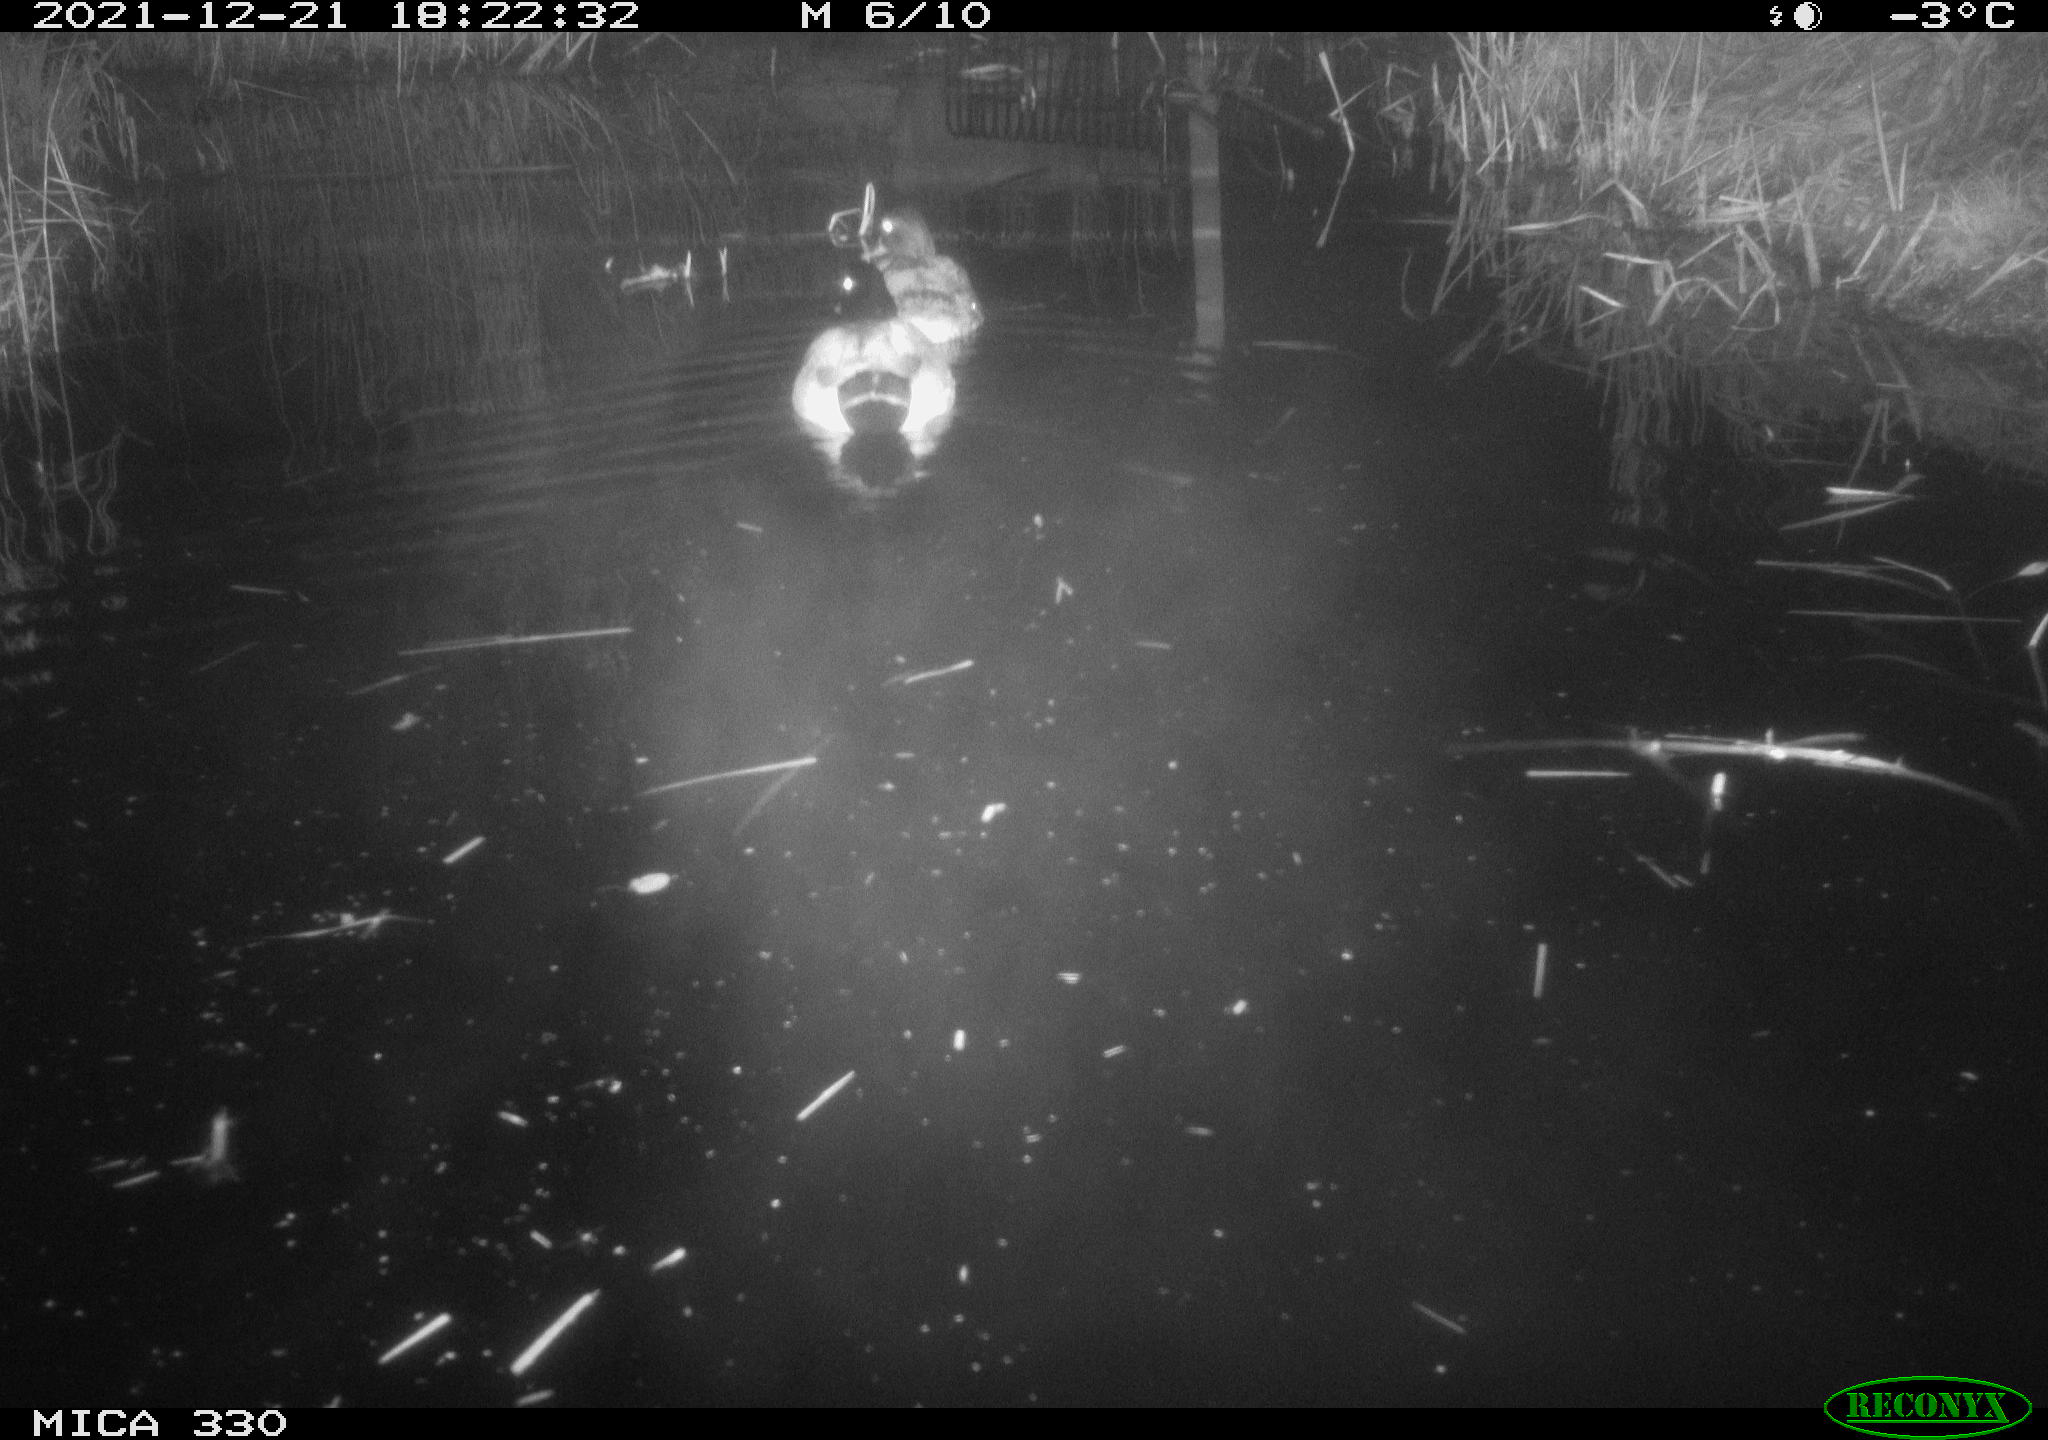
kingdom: Animalia
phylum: Chordata
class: Aves
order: Anseriformes
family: Anatidae
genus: Anas
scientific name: Anas platyrhynchos
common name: Mallard
